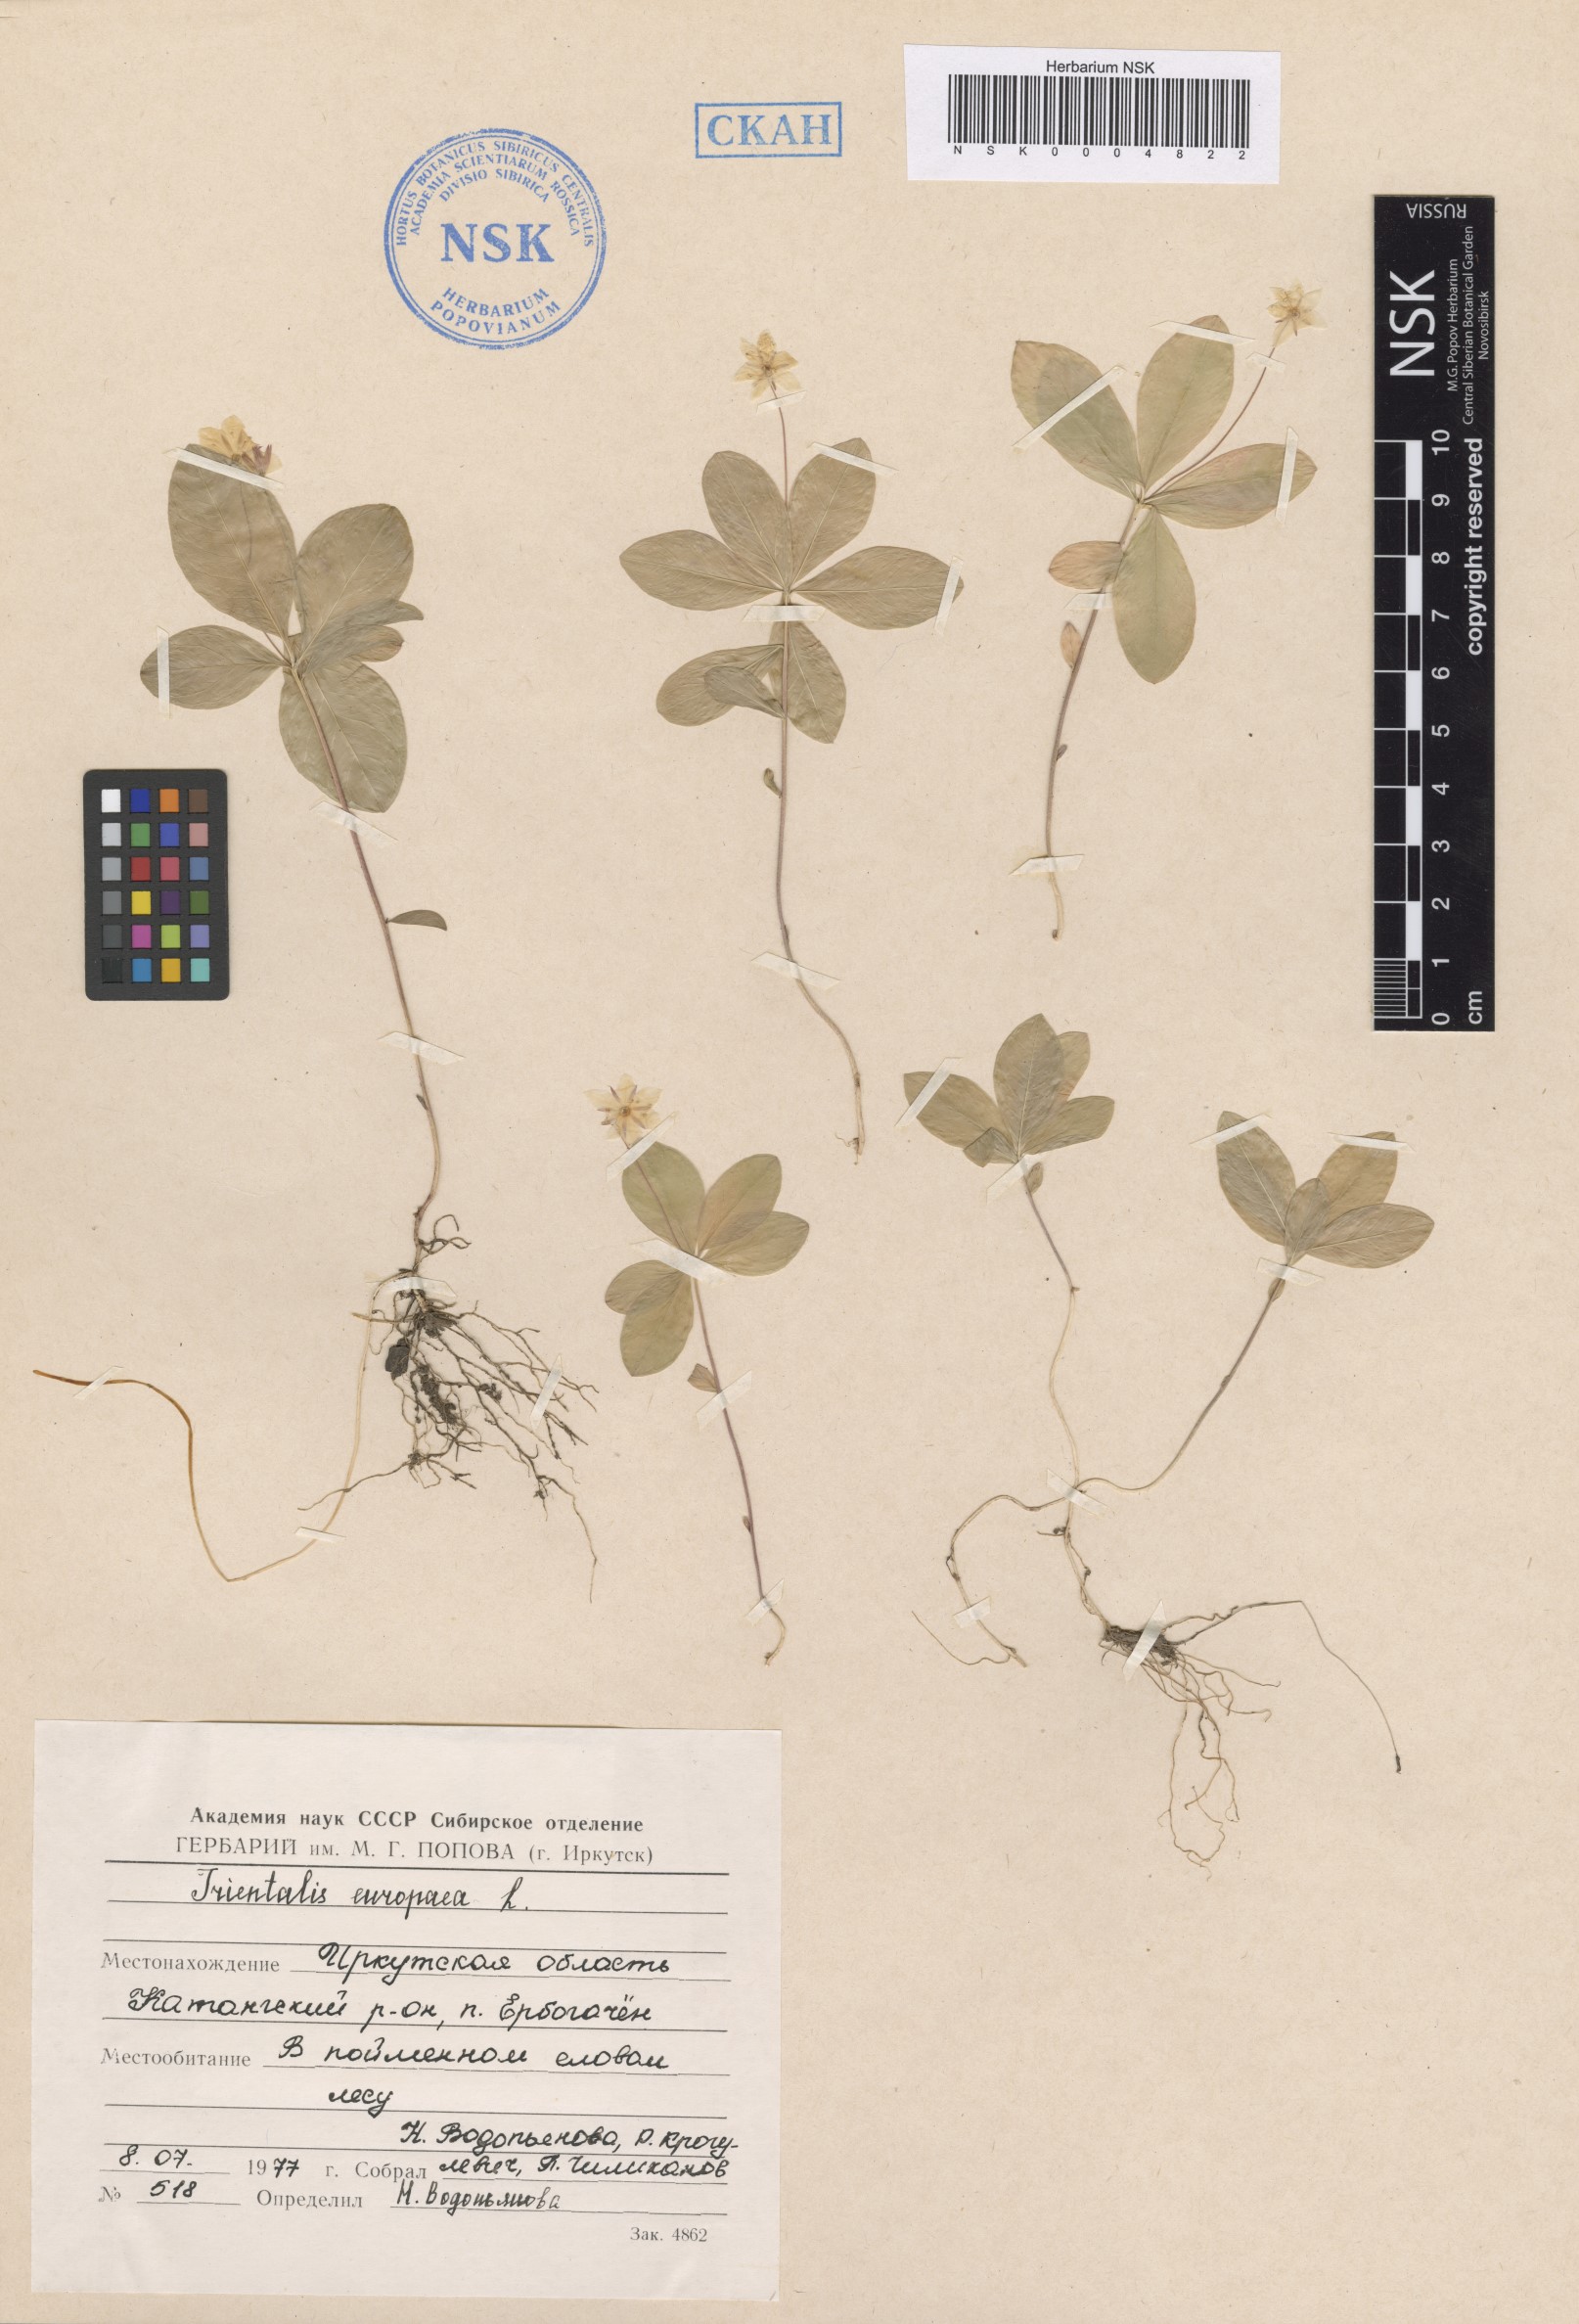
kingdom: Plantae
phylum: Tracheophyta
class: Magnoliopsida
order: Ericales
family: Primulaceae
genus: Lysimachia
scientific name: Lysimachia europaea
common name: Arctic starflower
